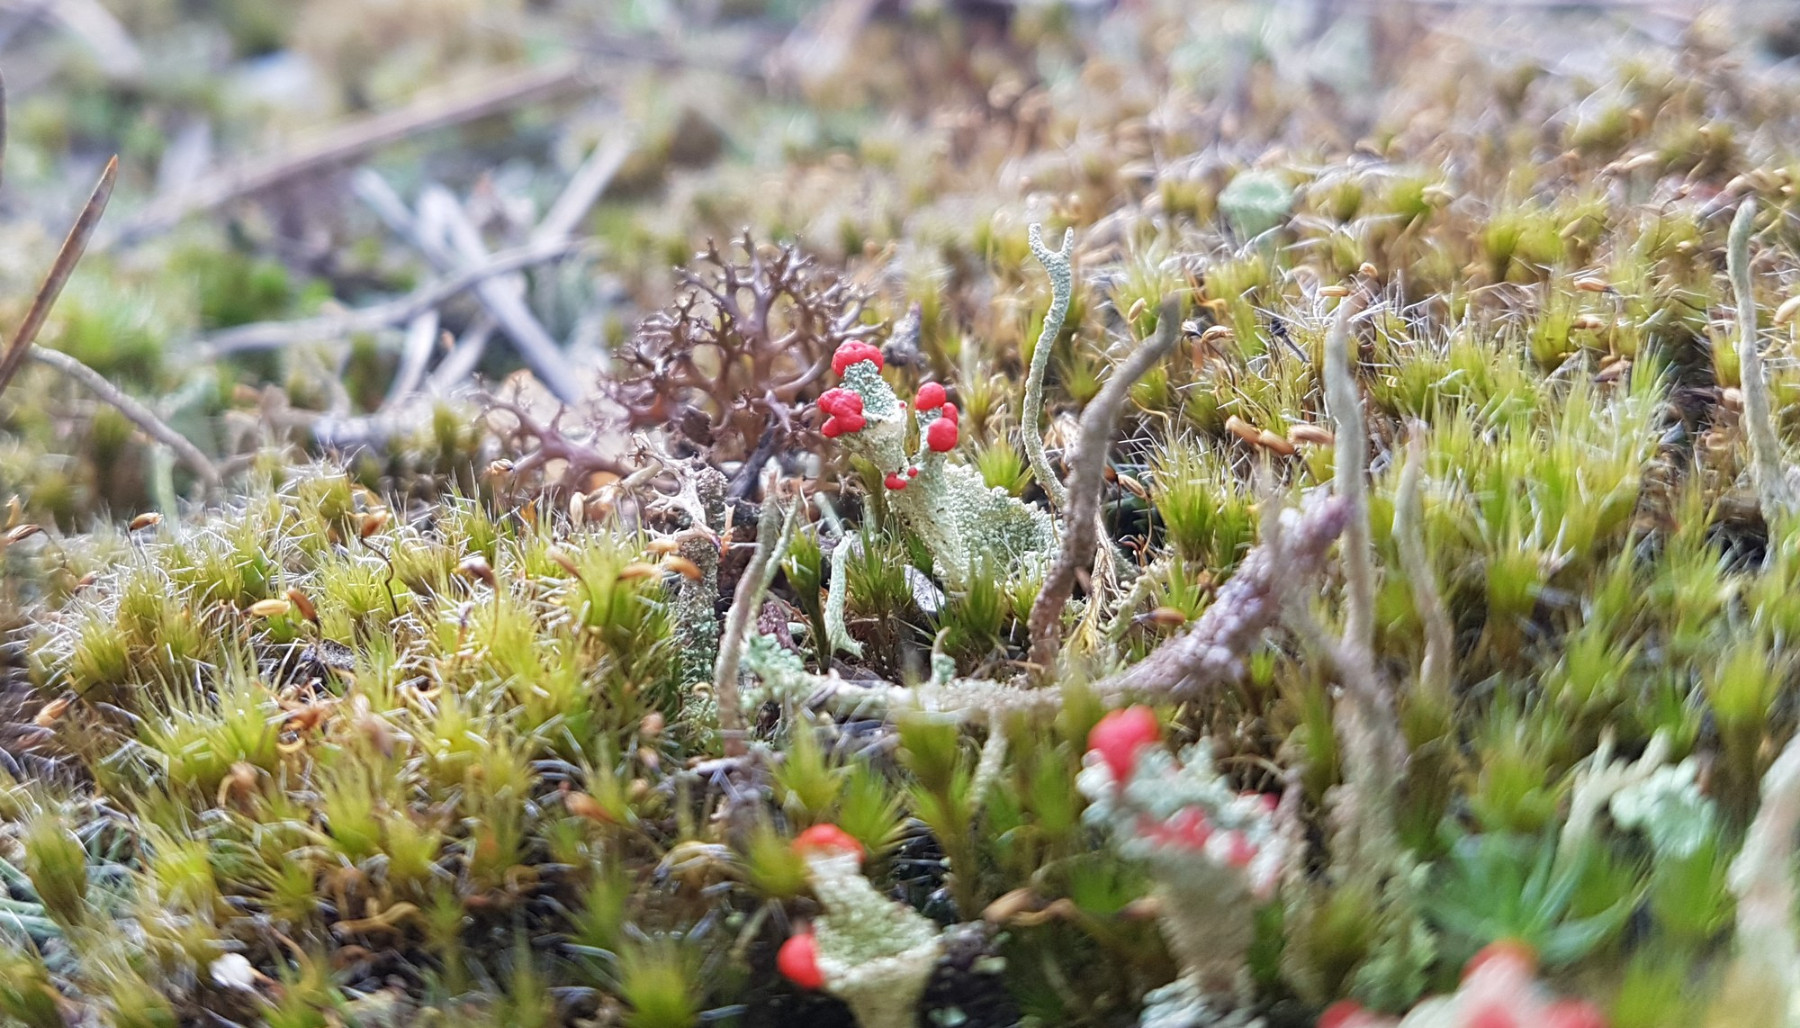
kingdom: Fungi
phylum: Ascomycota
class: Lecanoromycetes
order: Lecanorales
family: Cladoniaceae
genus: Cladonia
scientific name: Cladonia diversa
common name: rød bægerlav
